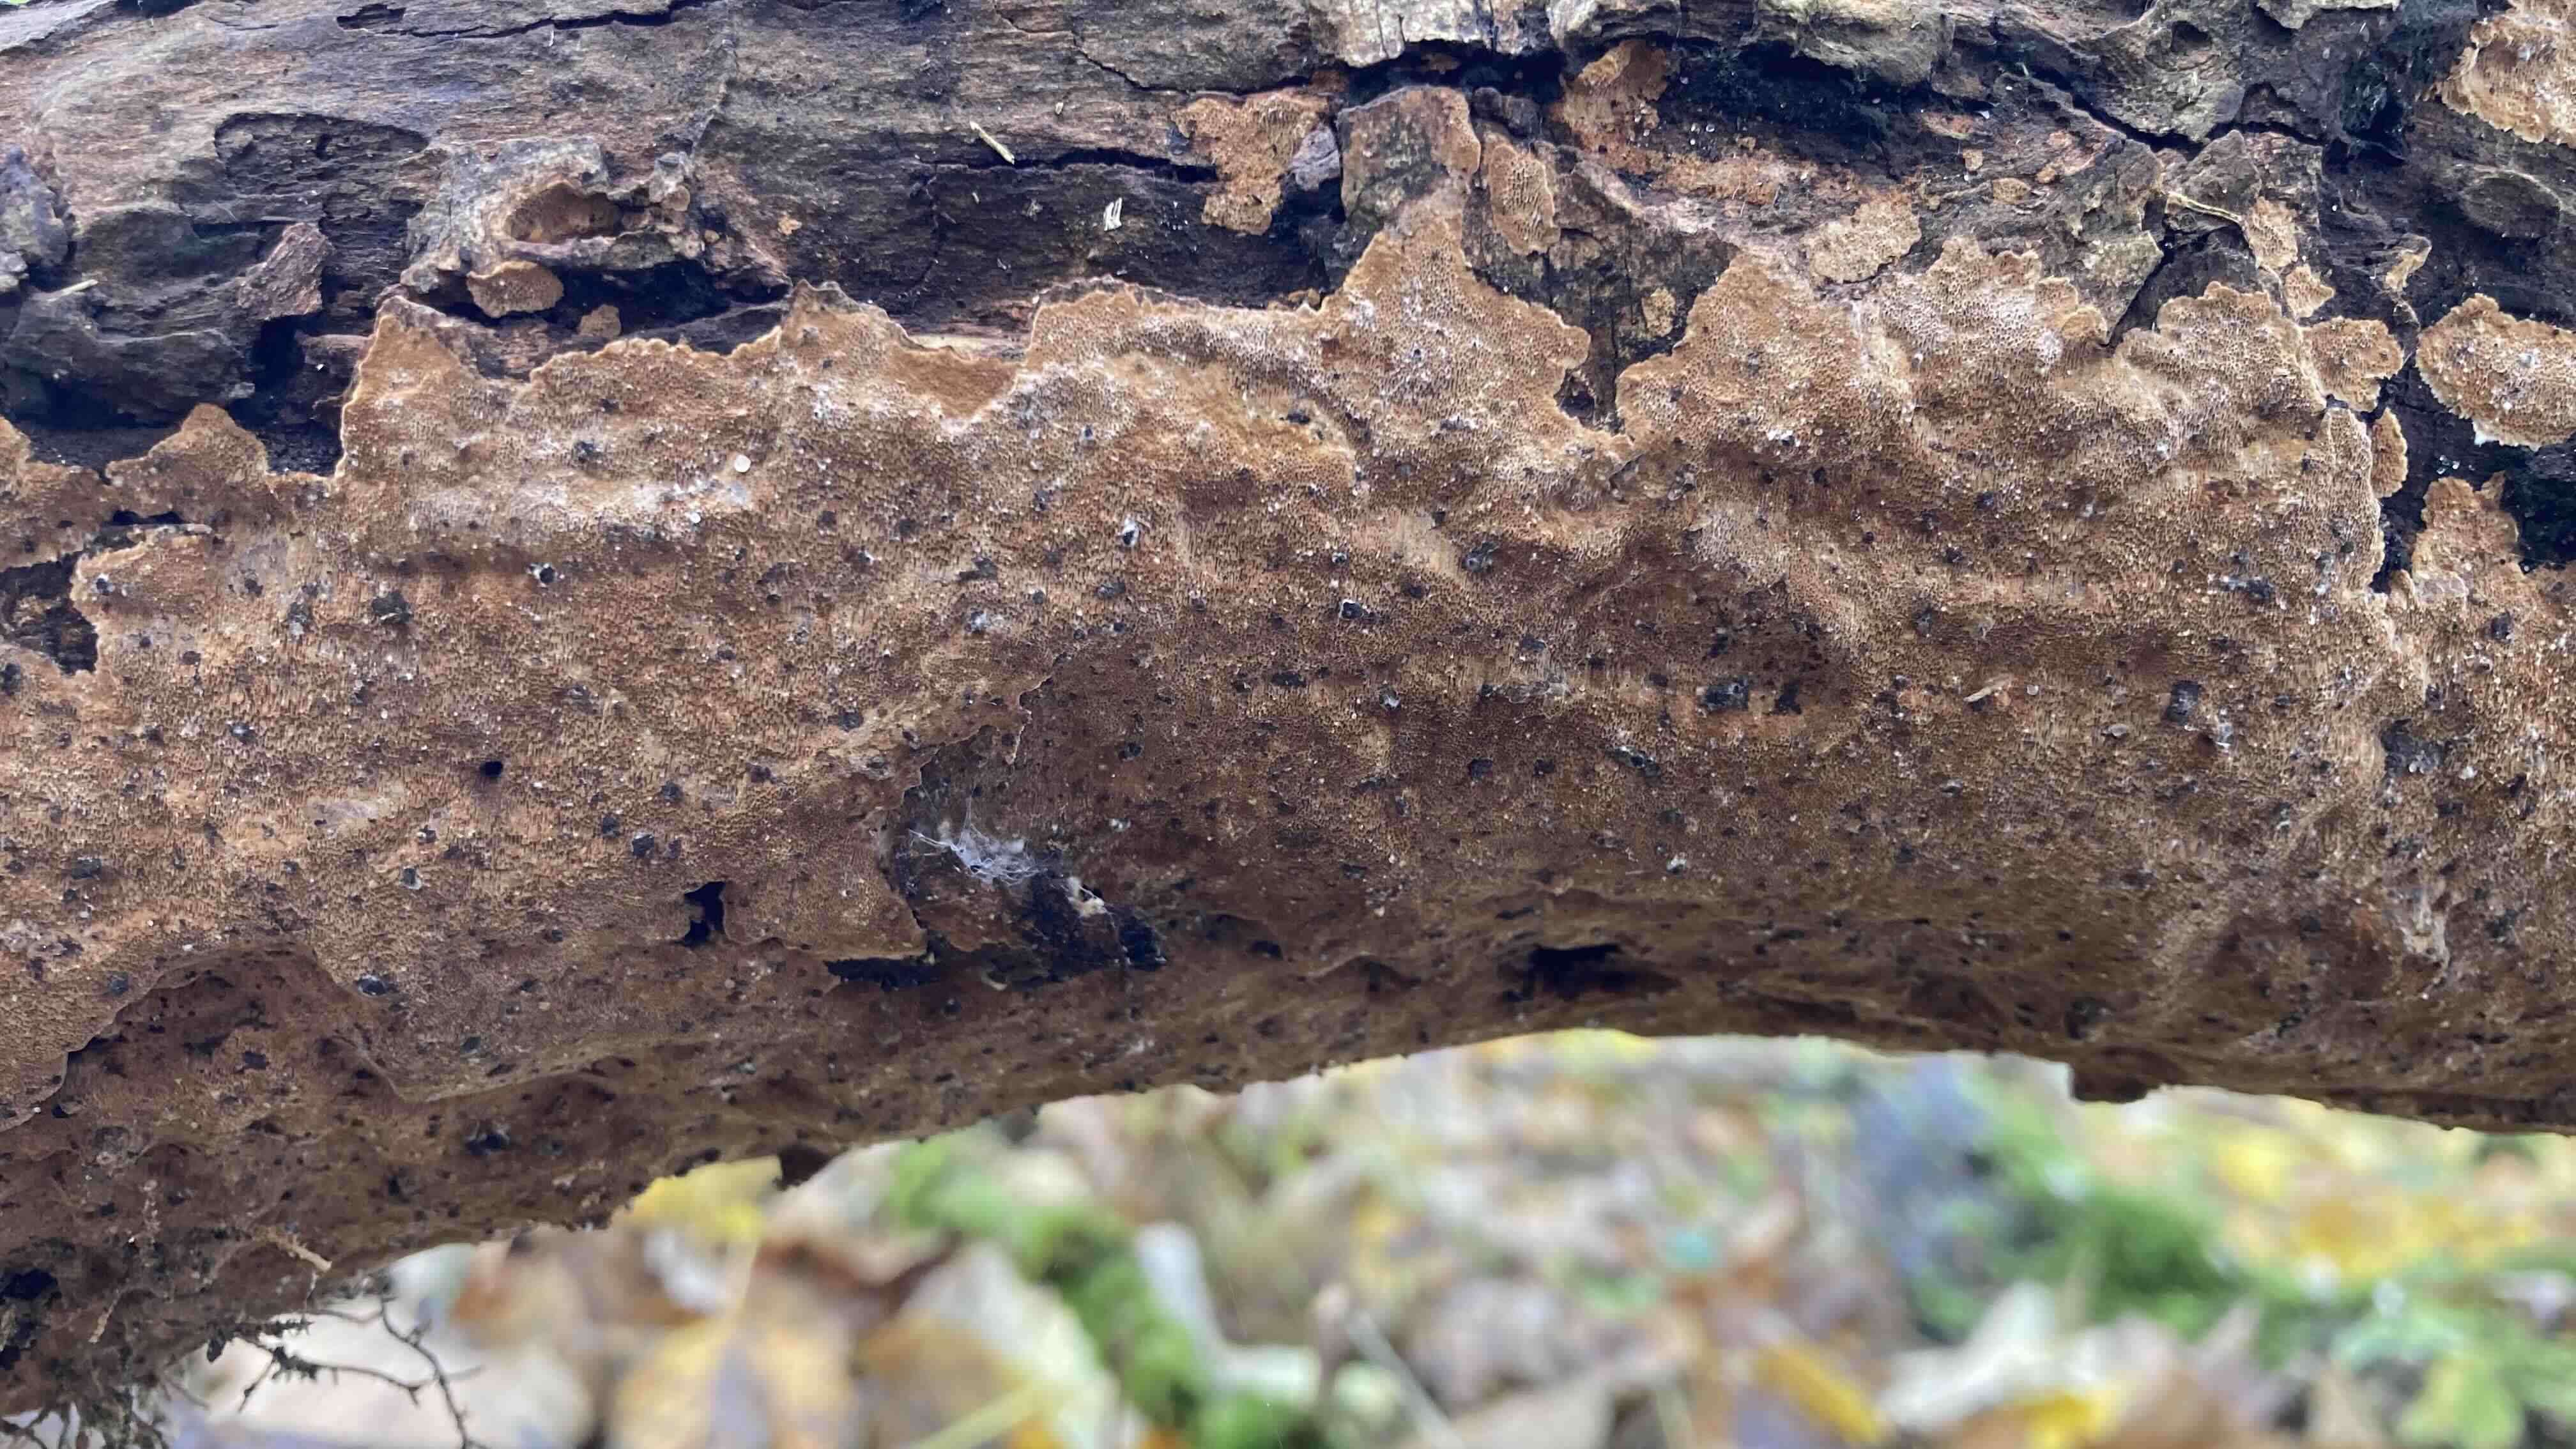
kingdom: Fungi
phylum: Basidiomycota
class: Agaricomycetes
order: Hymenochaetales
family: Hymenochaetaceae
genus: Fuscoporia
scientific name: Fuscoporia ferrea
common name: skorpe-ildporesvamp
